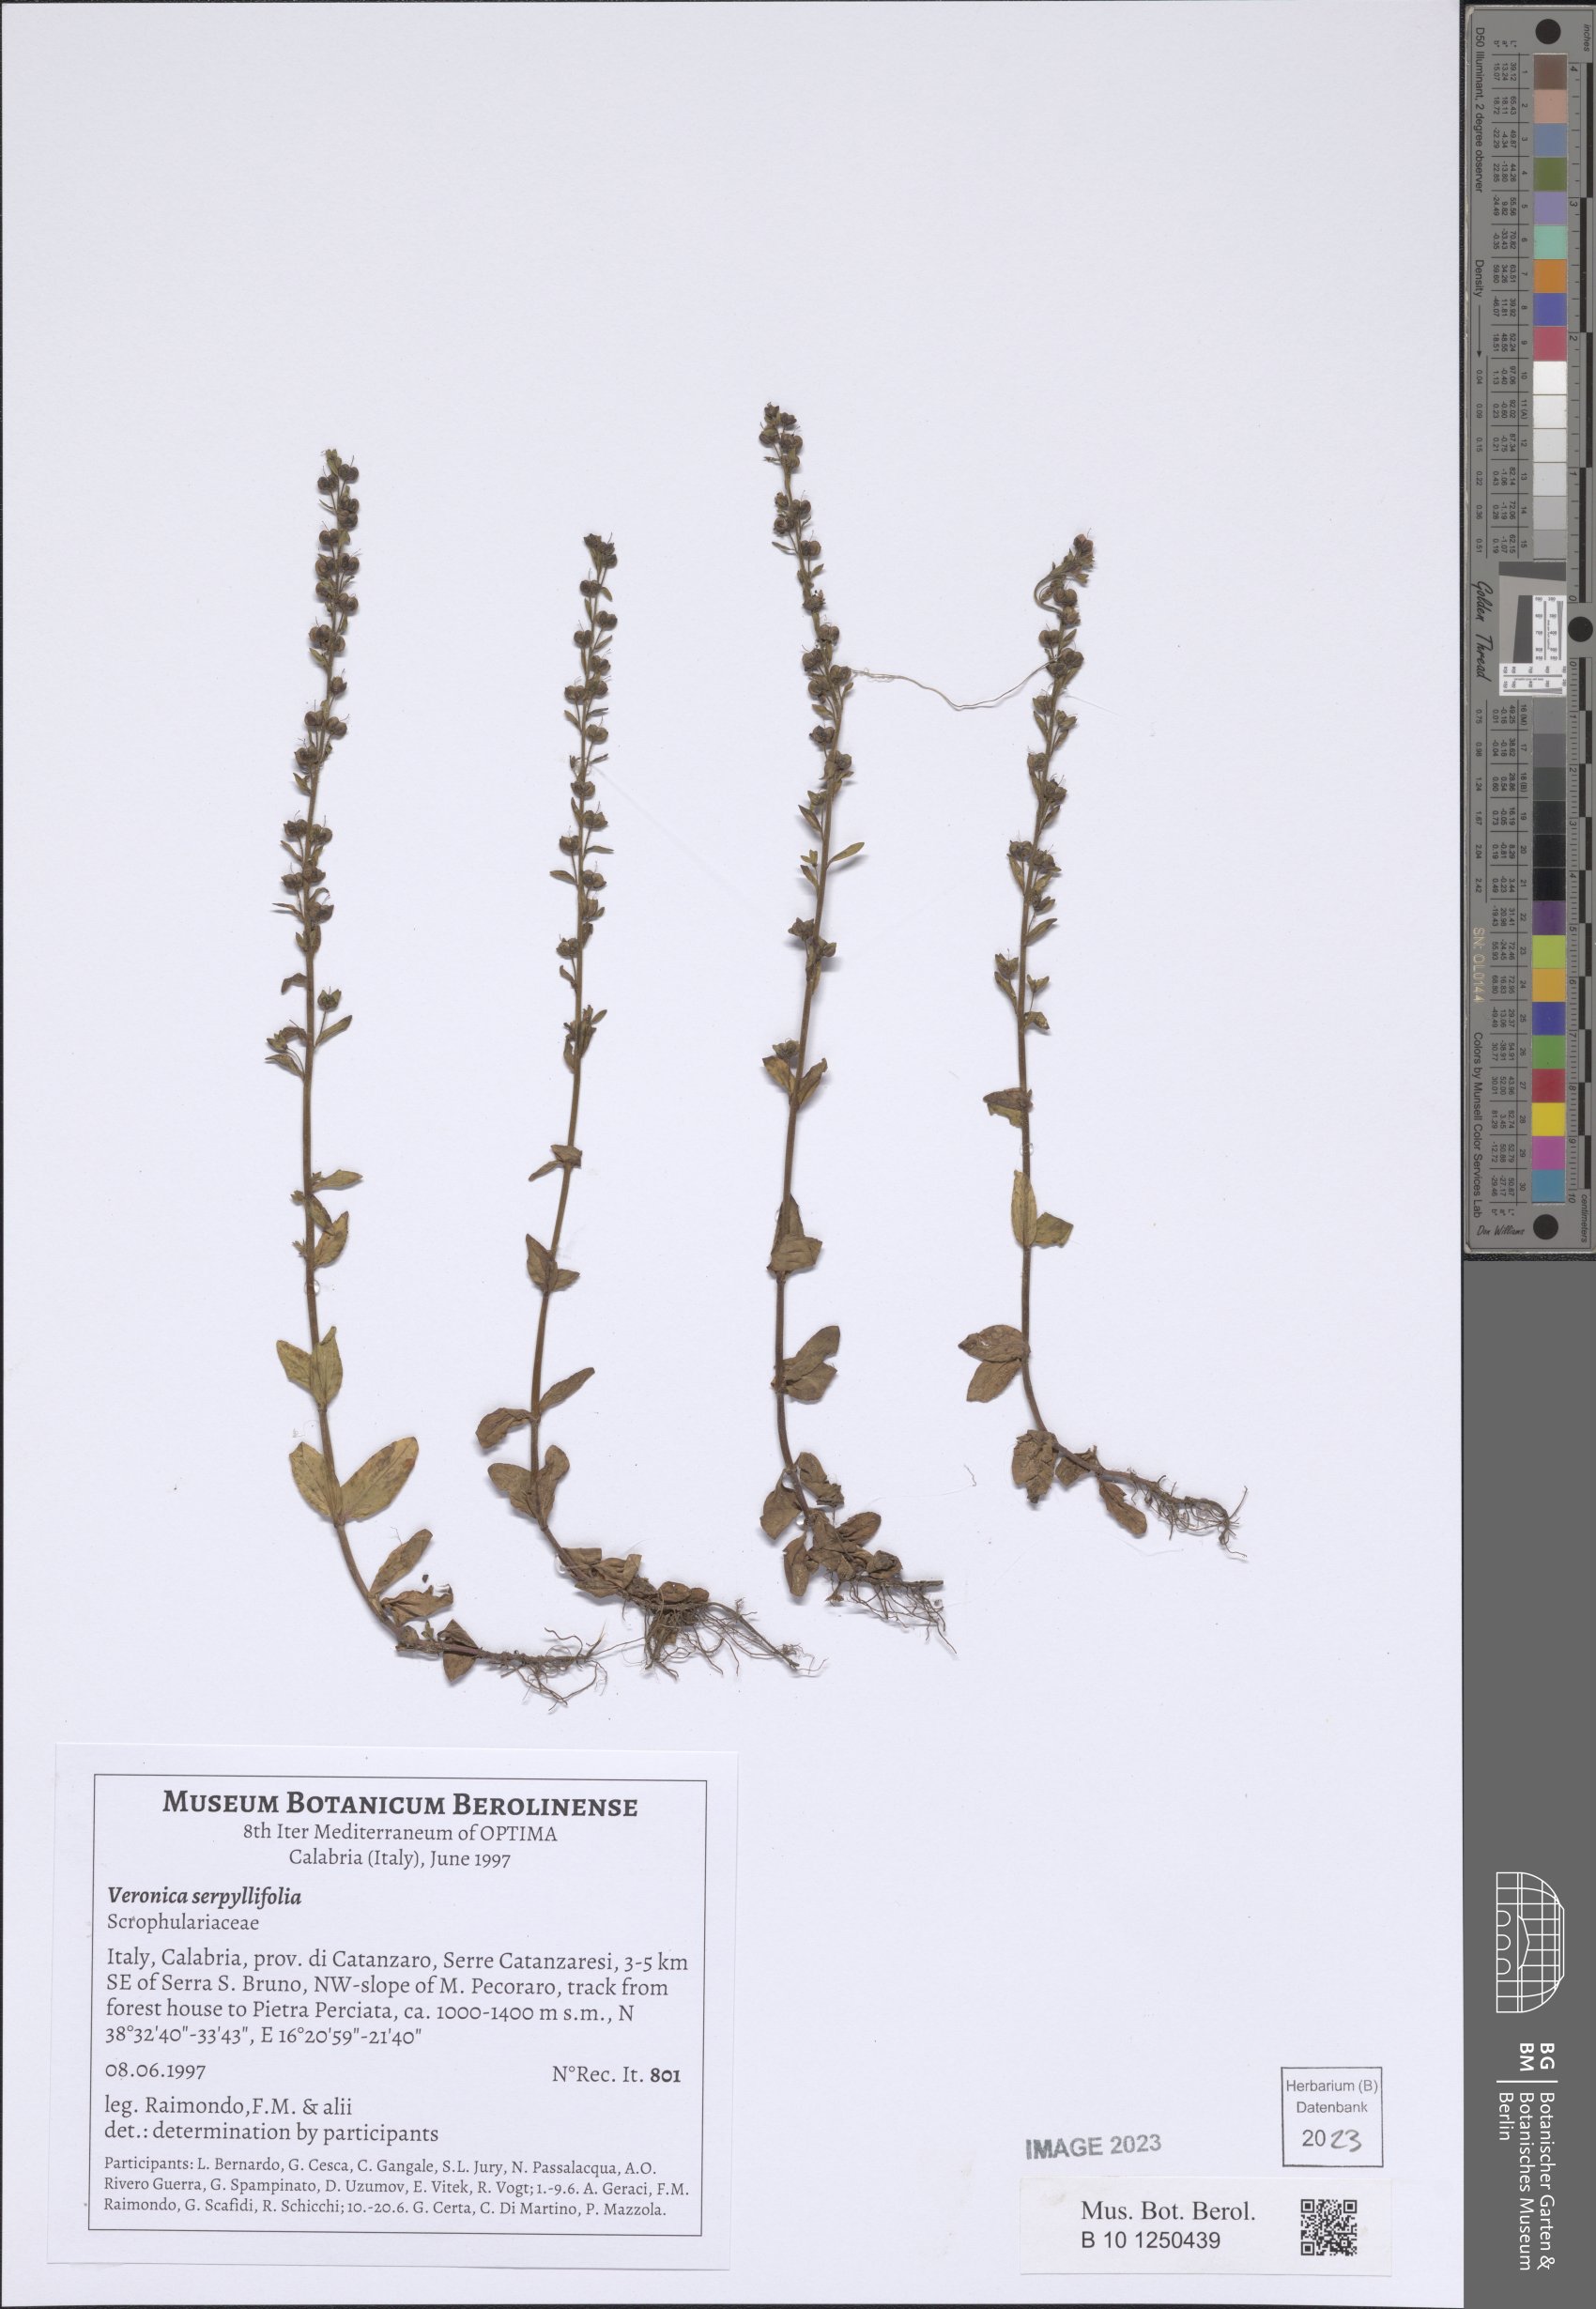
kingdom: Plantae
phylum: Tracheophyta
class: Magnoliopsida
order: Lamiales
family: Plantaginaceae
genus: Veronica
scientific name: Veronica serpyllifolia
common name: Thyme-leaved speedwell
